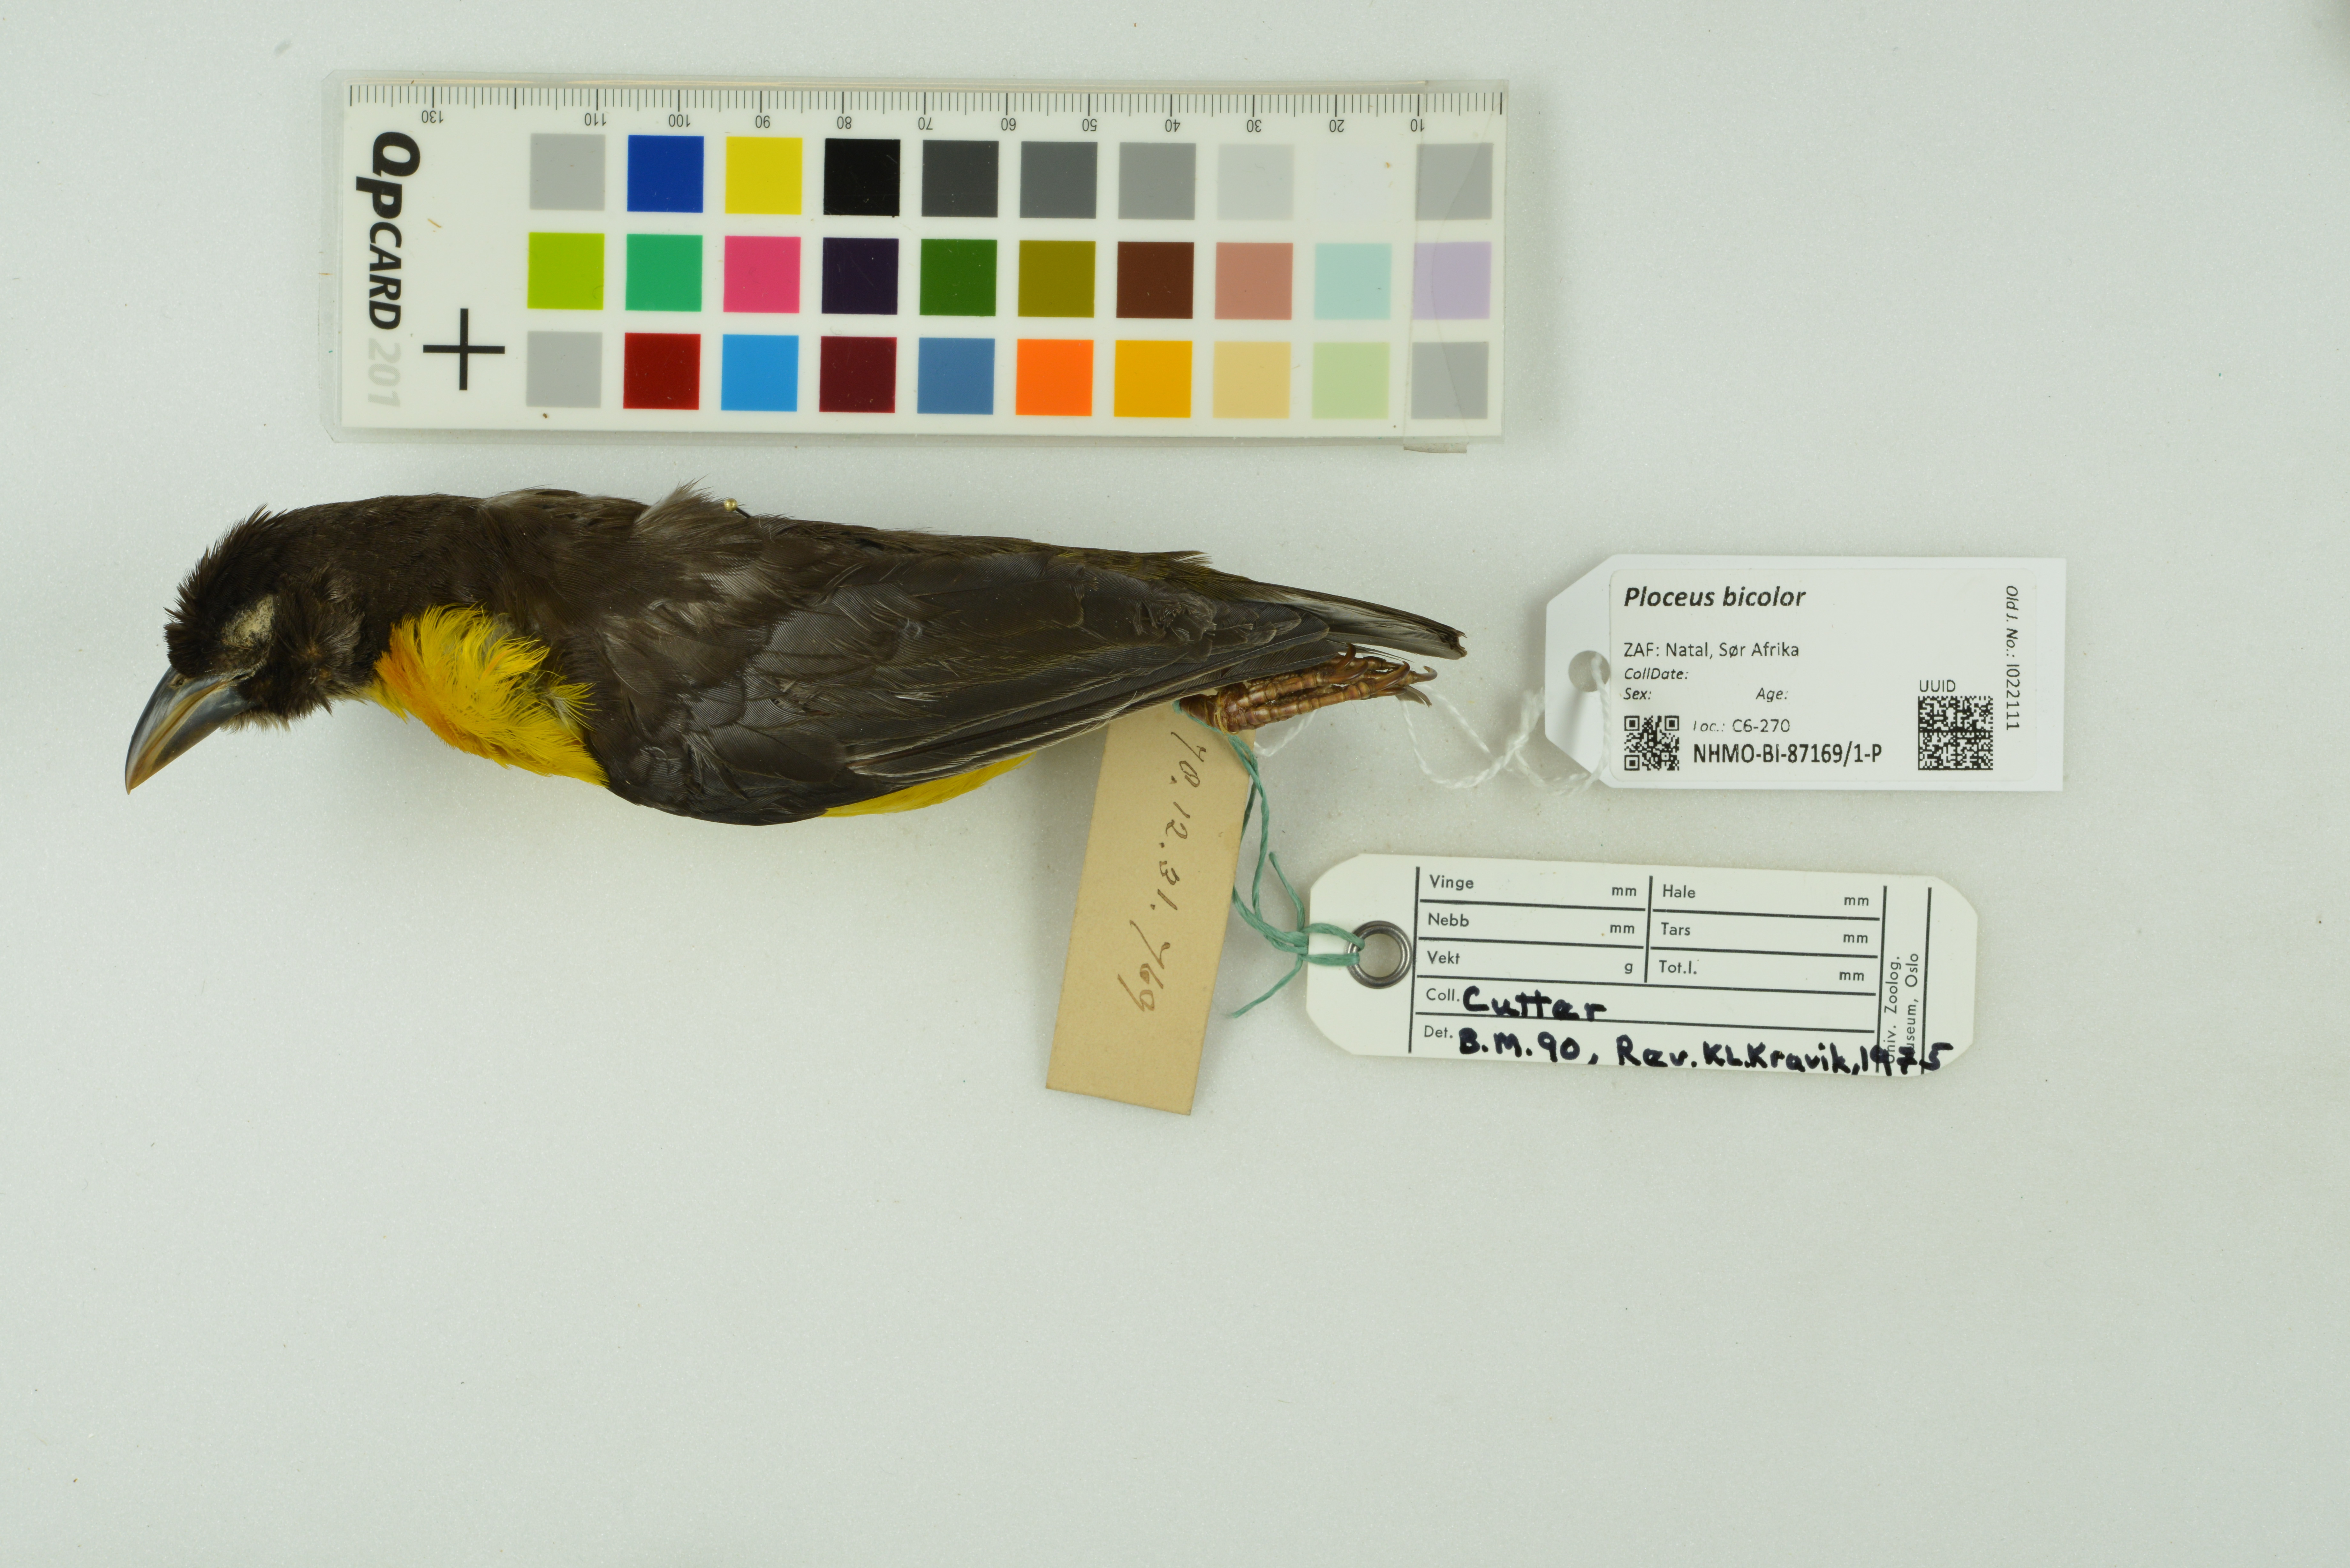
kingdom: Animalia
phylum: Chordata
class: Aves
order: Passeriformes
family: Ploceidae
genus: Ploceus
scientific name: Ploceus bicolor
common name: Dark-backed weaver
